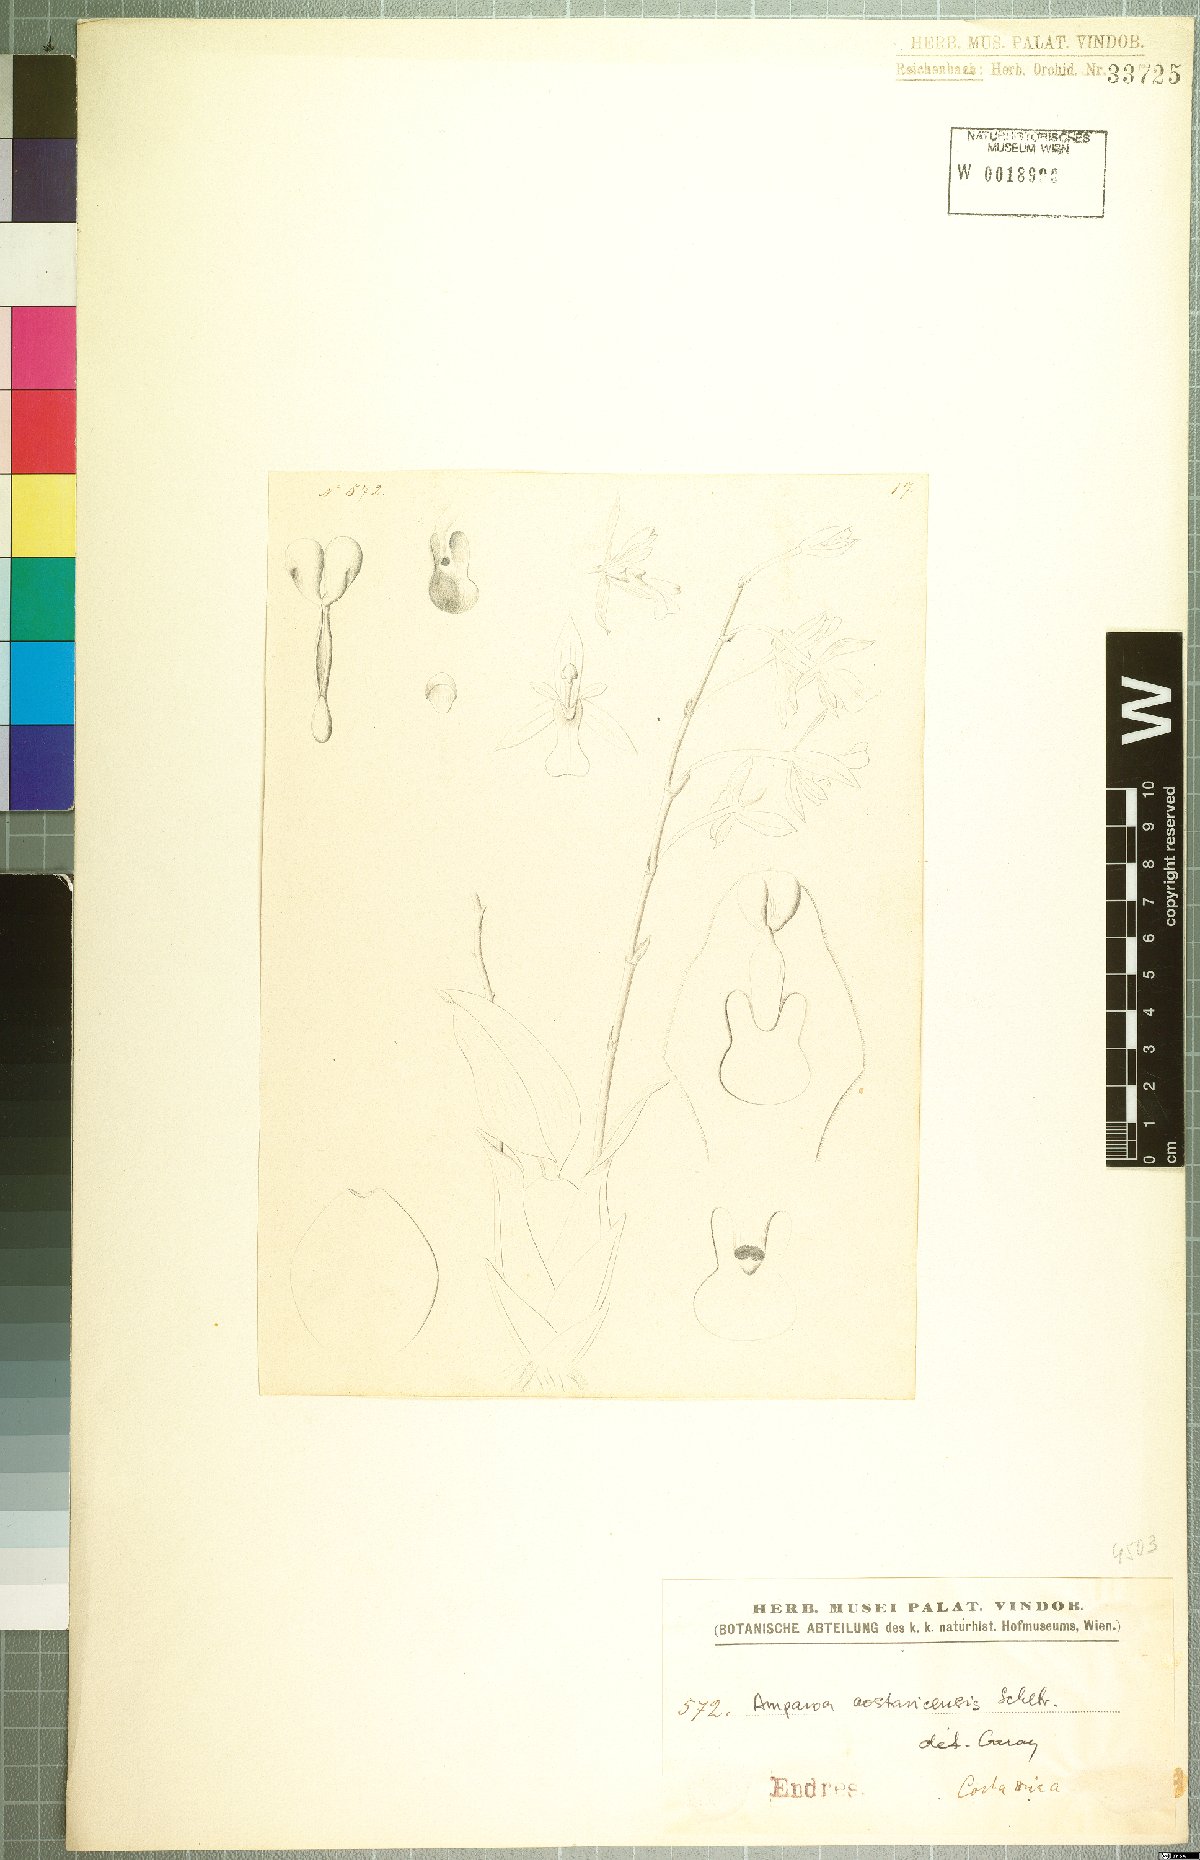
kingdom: Plantae
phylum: Tracheophyta
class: Liliopsida
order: Asparagales
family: Orchidaceae
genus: Rossioglossum
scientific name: Rossioglossum beloglossum
